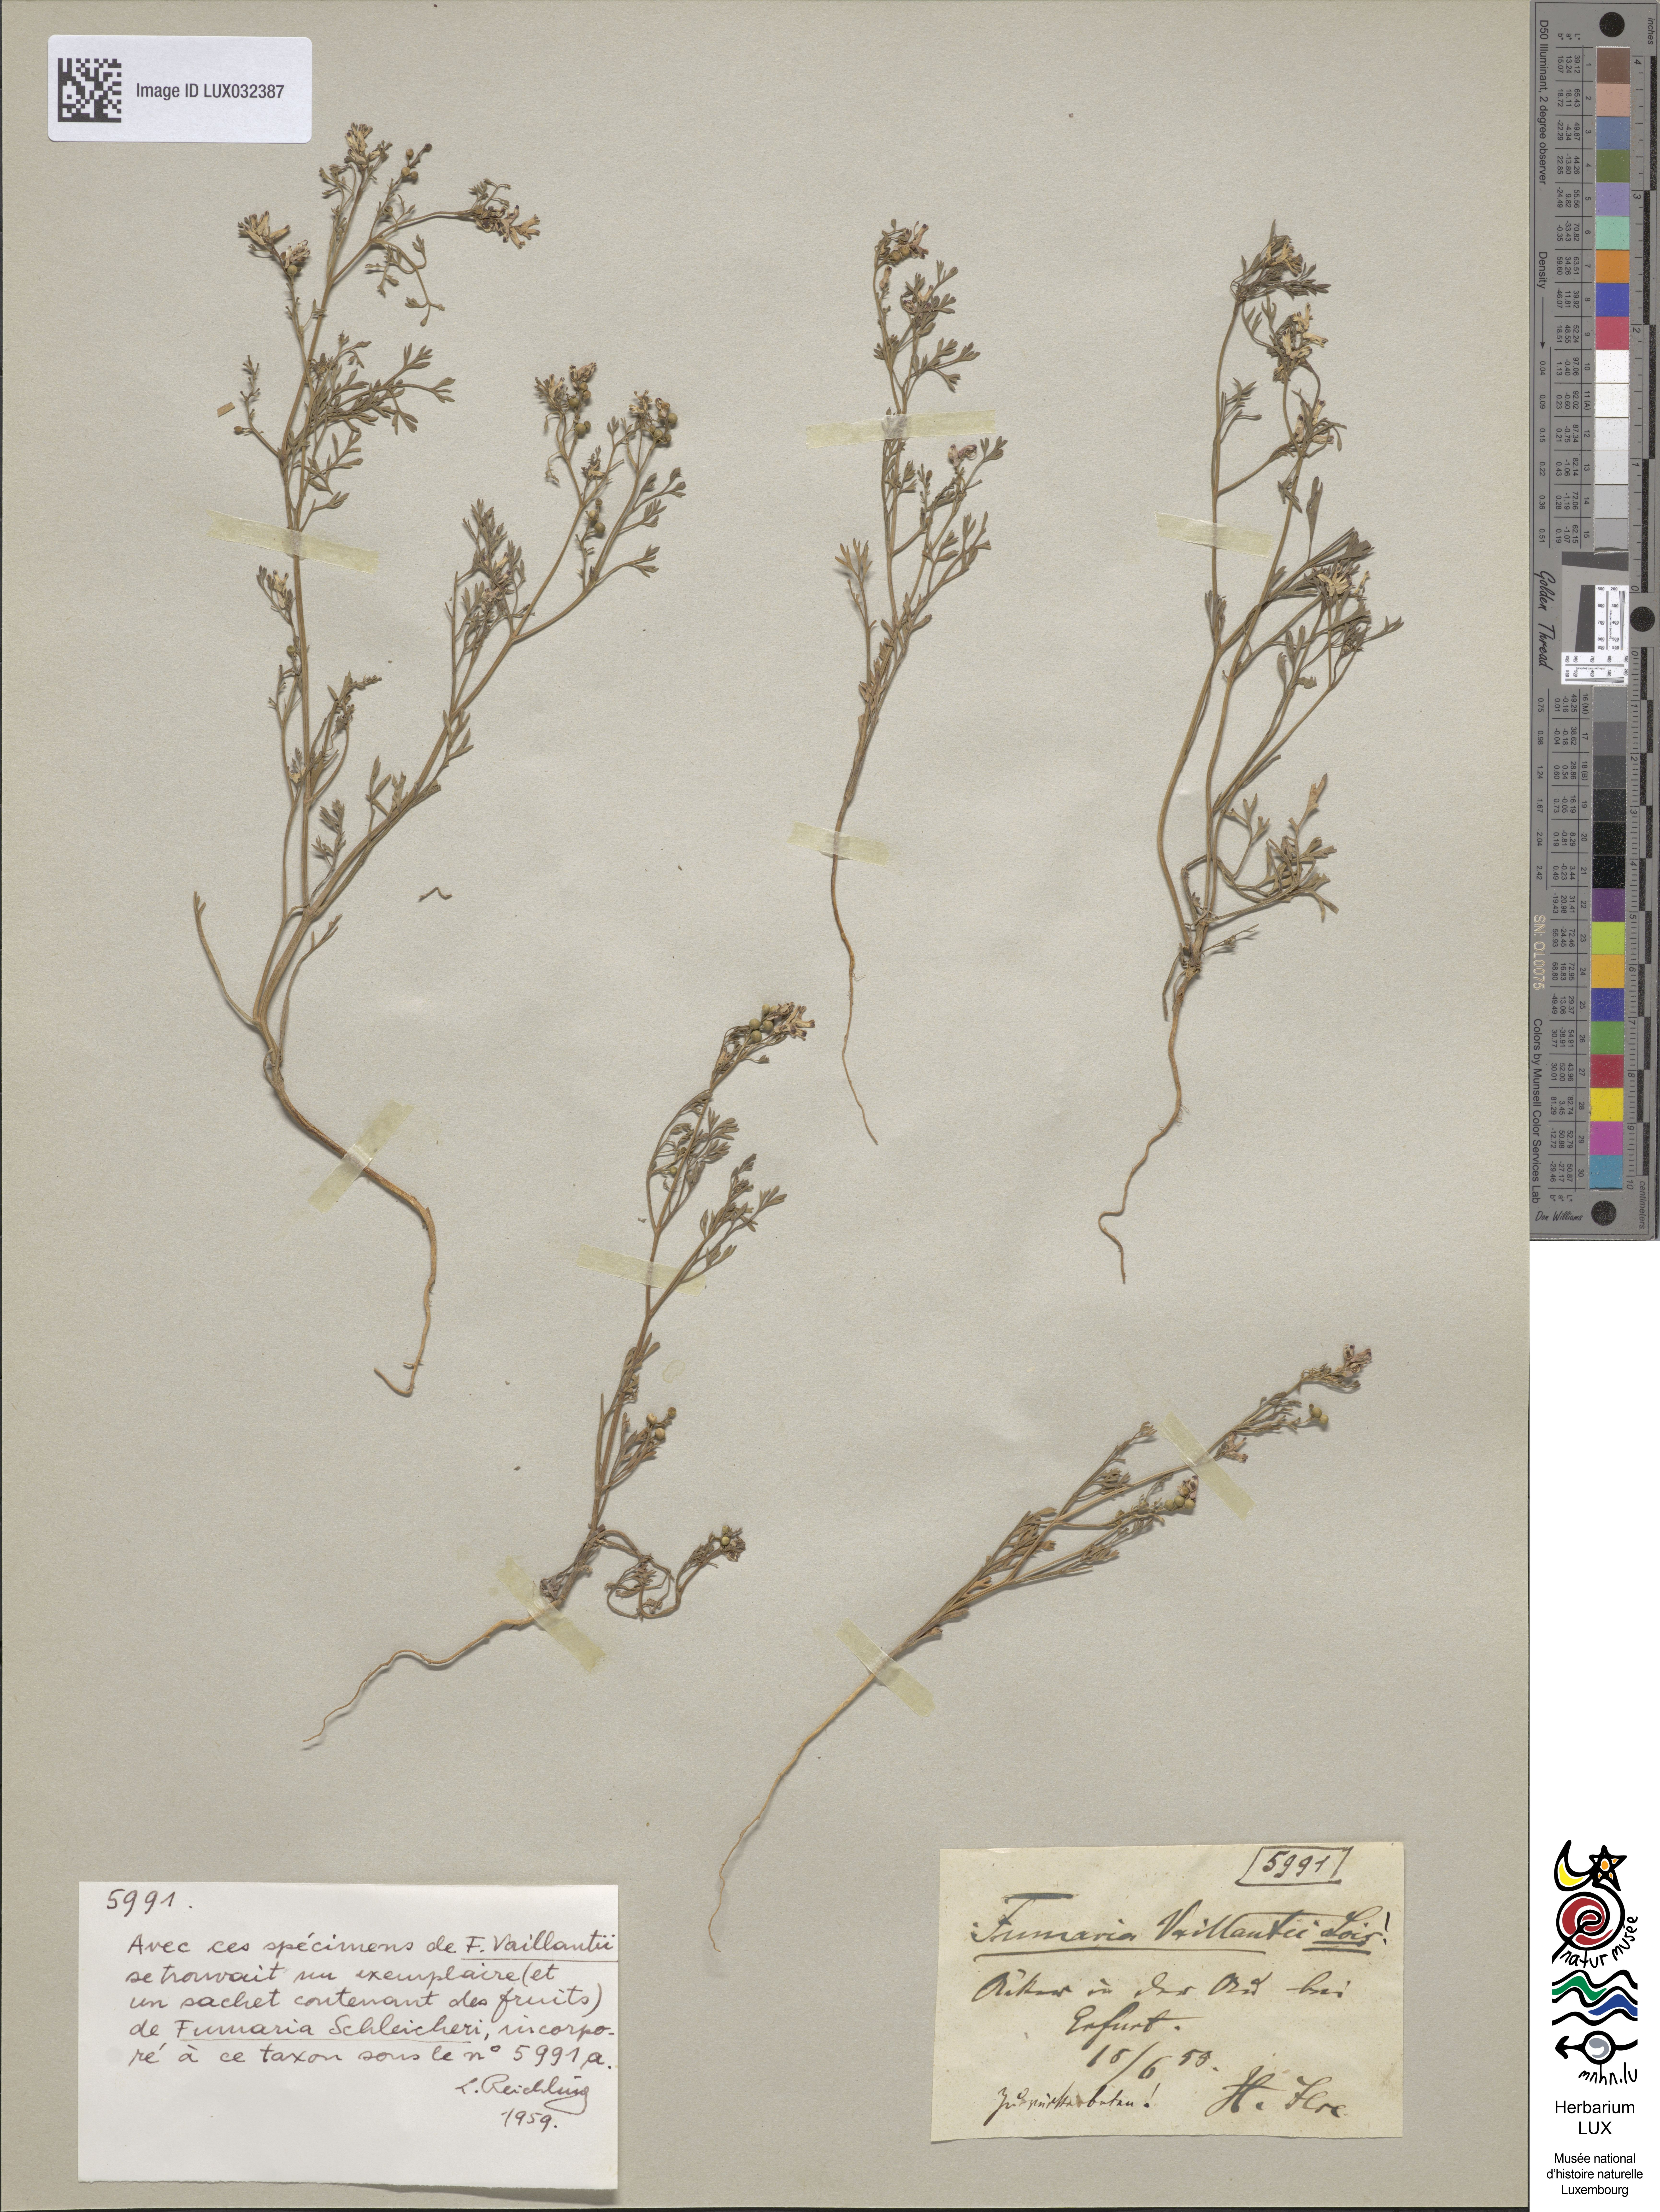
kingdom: Plantae
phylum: Tracheophyta
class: Magnoliopsida
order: Ranunculales
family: Papaveraceae
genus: Fumaria
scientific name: Fumaria vaillantii
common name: Few-flowered fumitory
